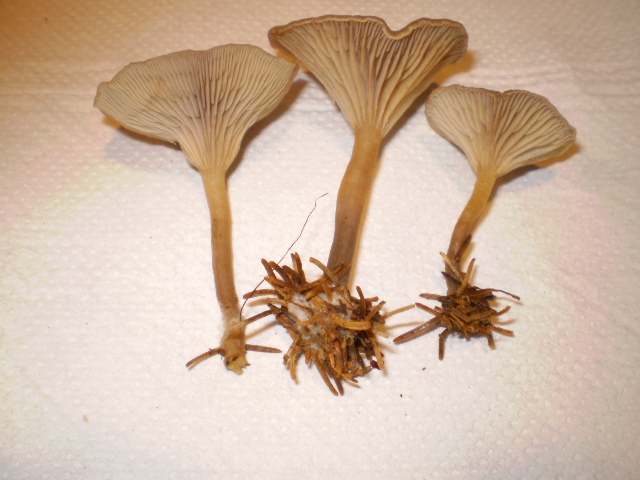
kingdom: Fungi
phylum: Basidiomycota
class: Agaricomycetes
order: Agaricales
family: Tricholomataceae
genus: Clitocybe
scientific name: Clitocybe metachroa
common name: grå tragthat
